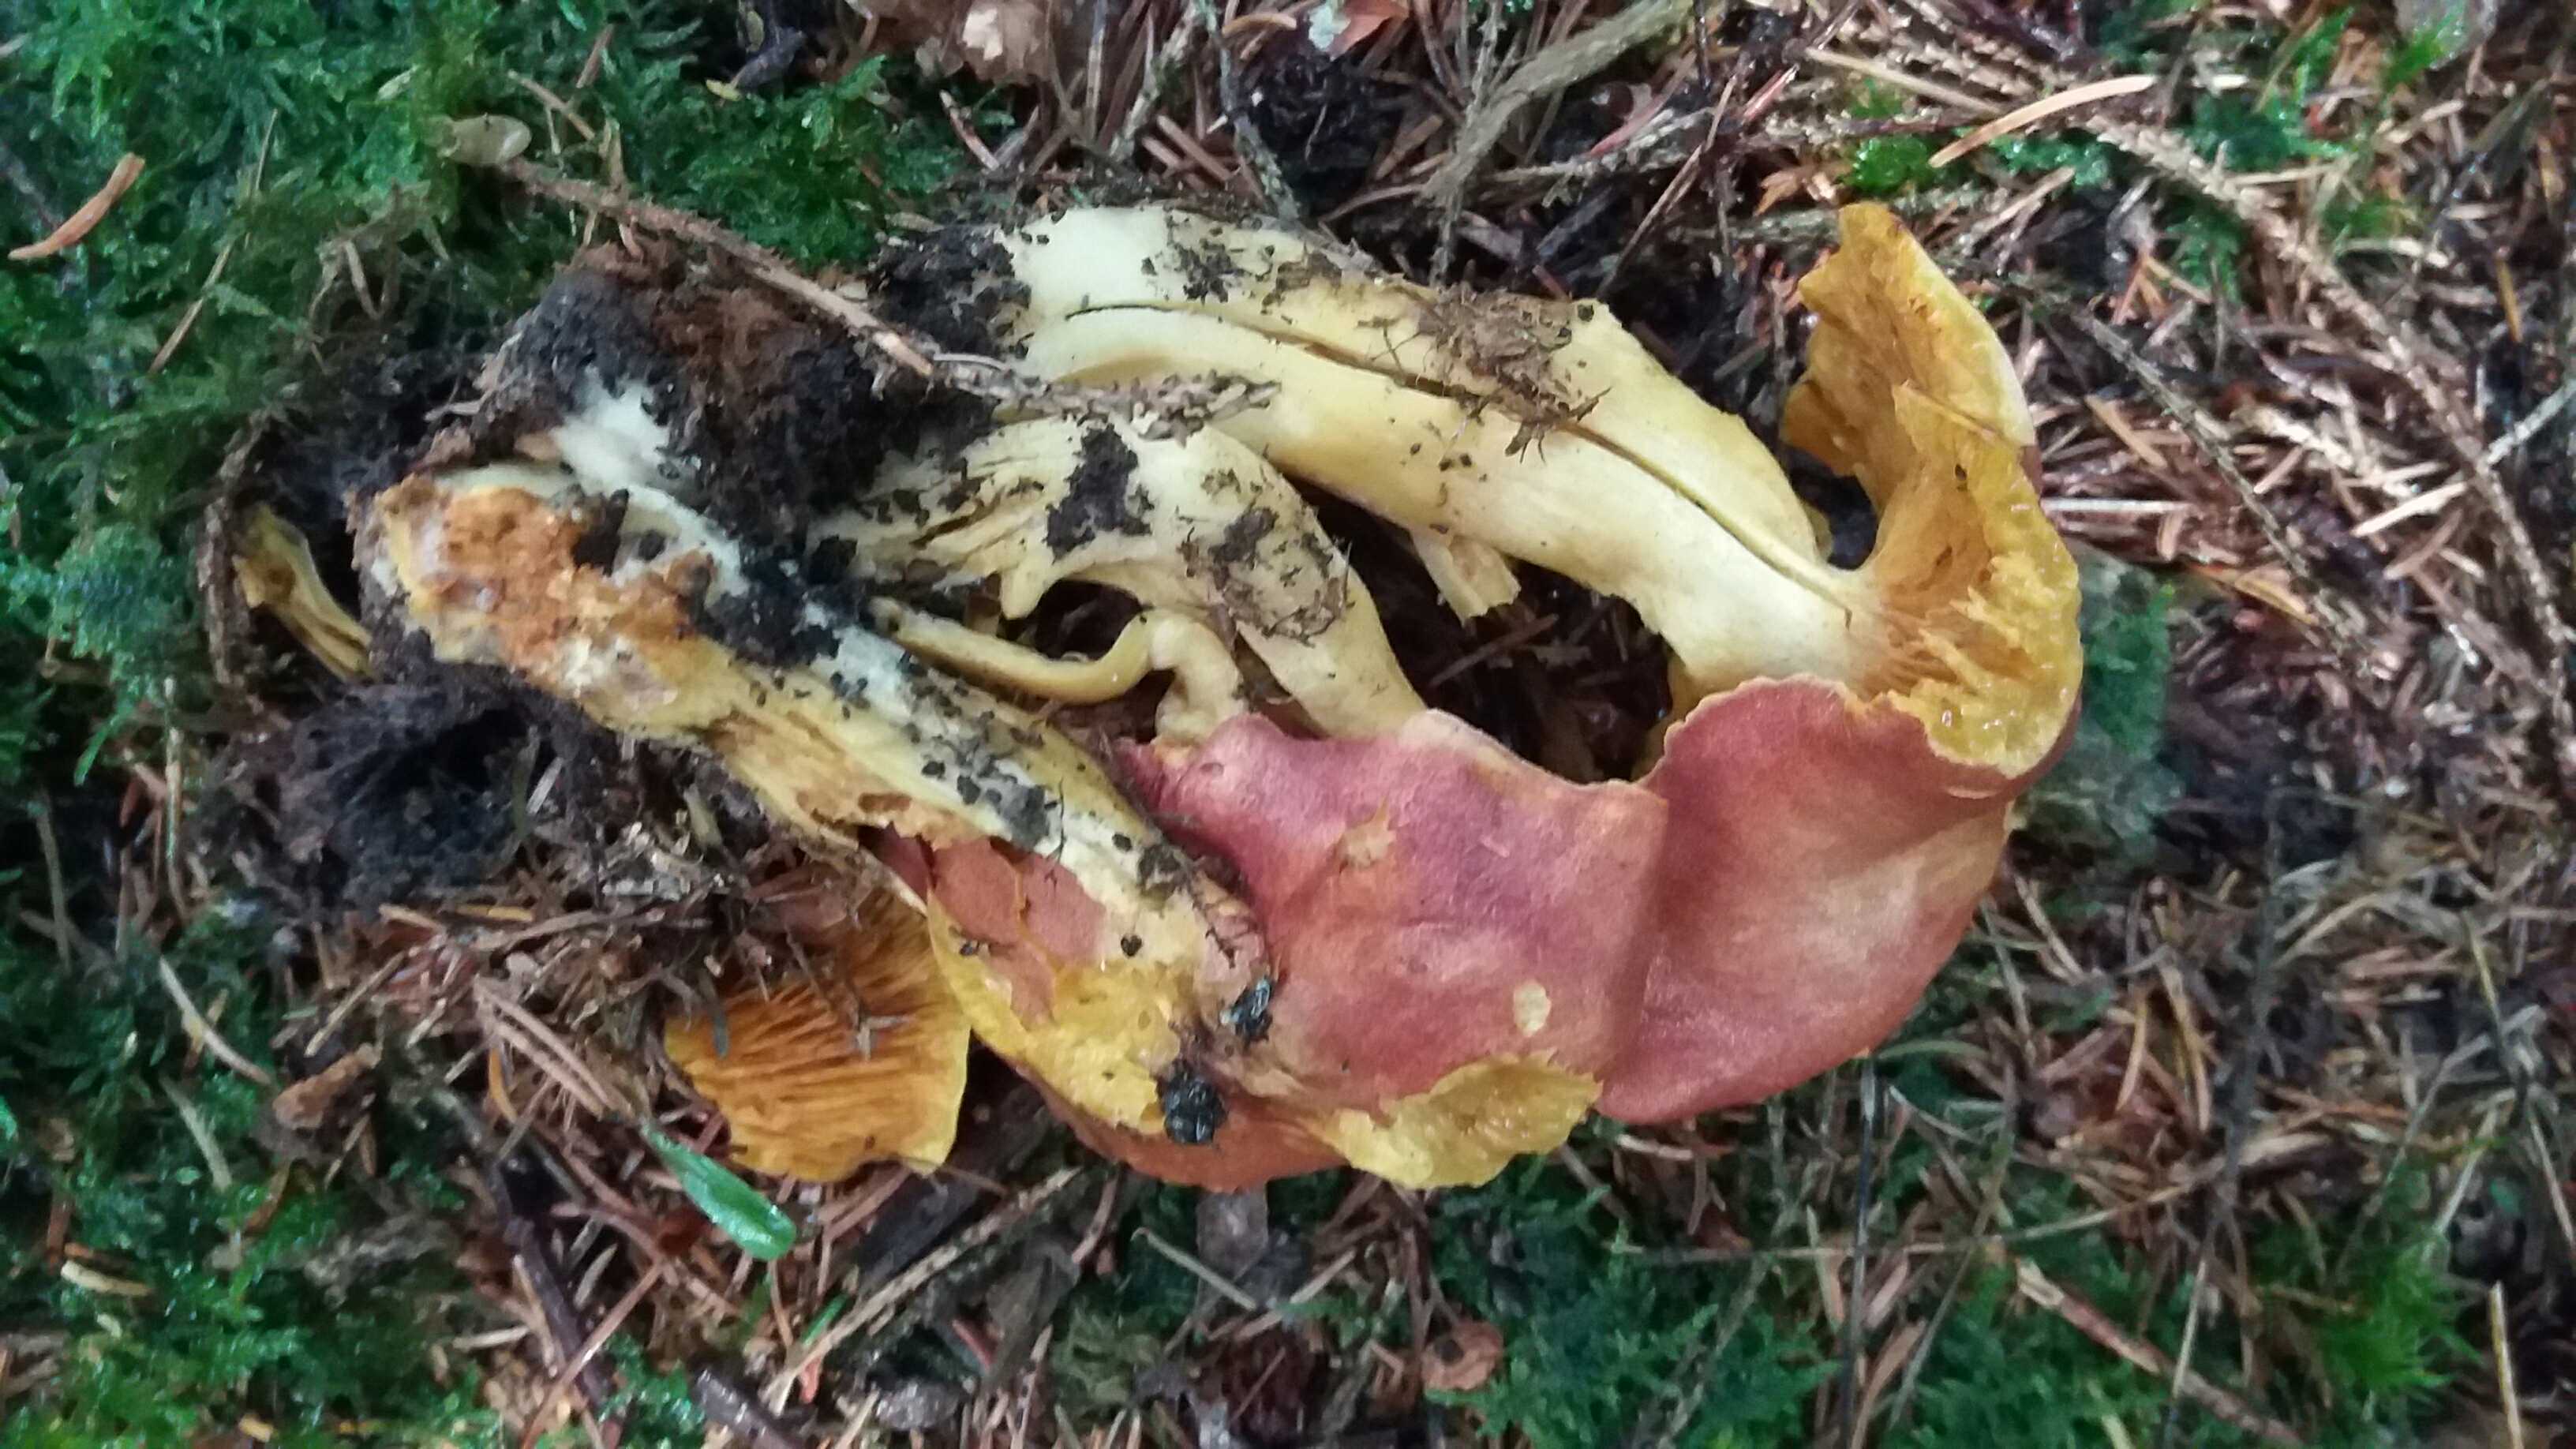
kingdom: Fungi
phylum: Basidiomycota
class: Agaricomycetes
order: Agaricales
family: Tricholomataceae
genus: Tricholomopsis
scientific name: Tricholomopsis rutilans
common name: purpur-væbnerhat
